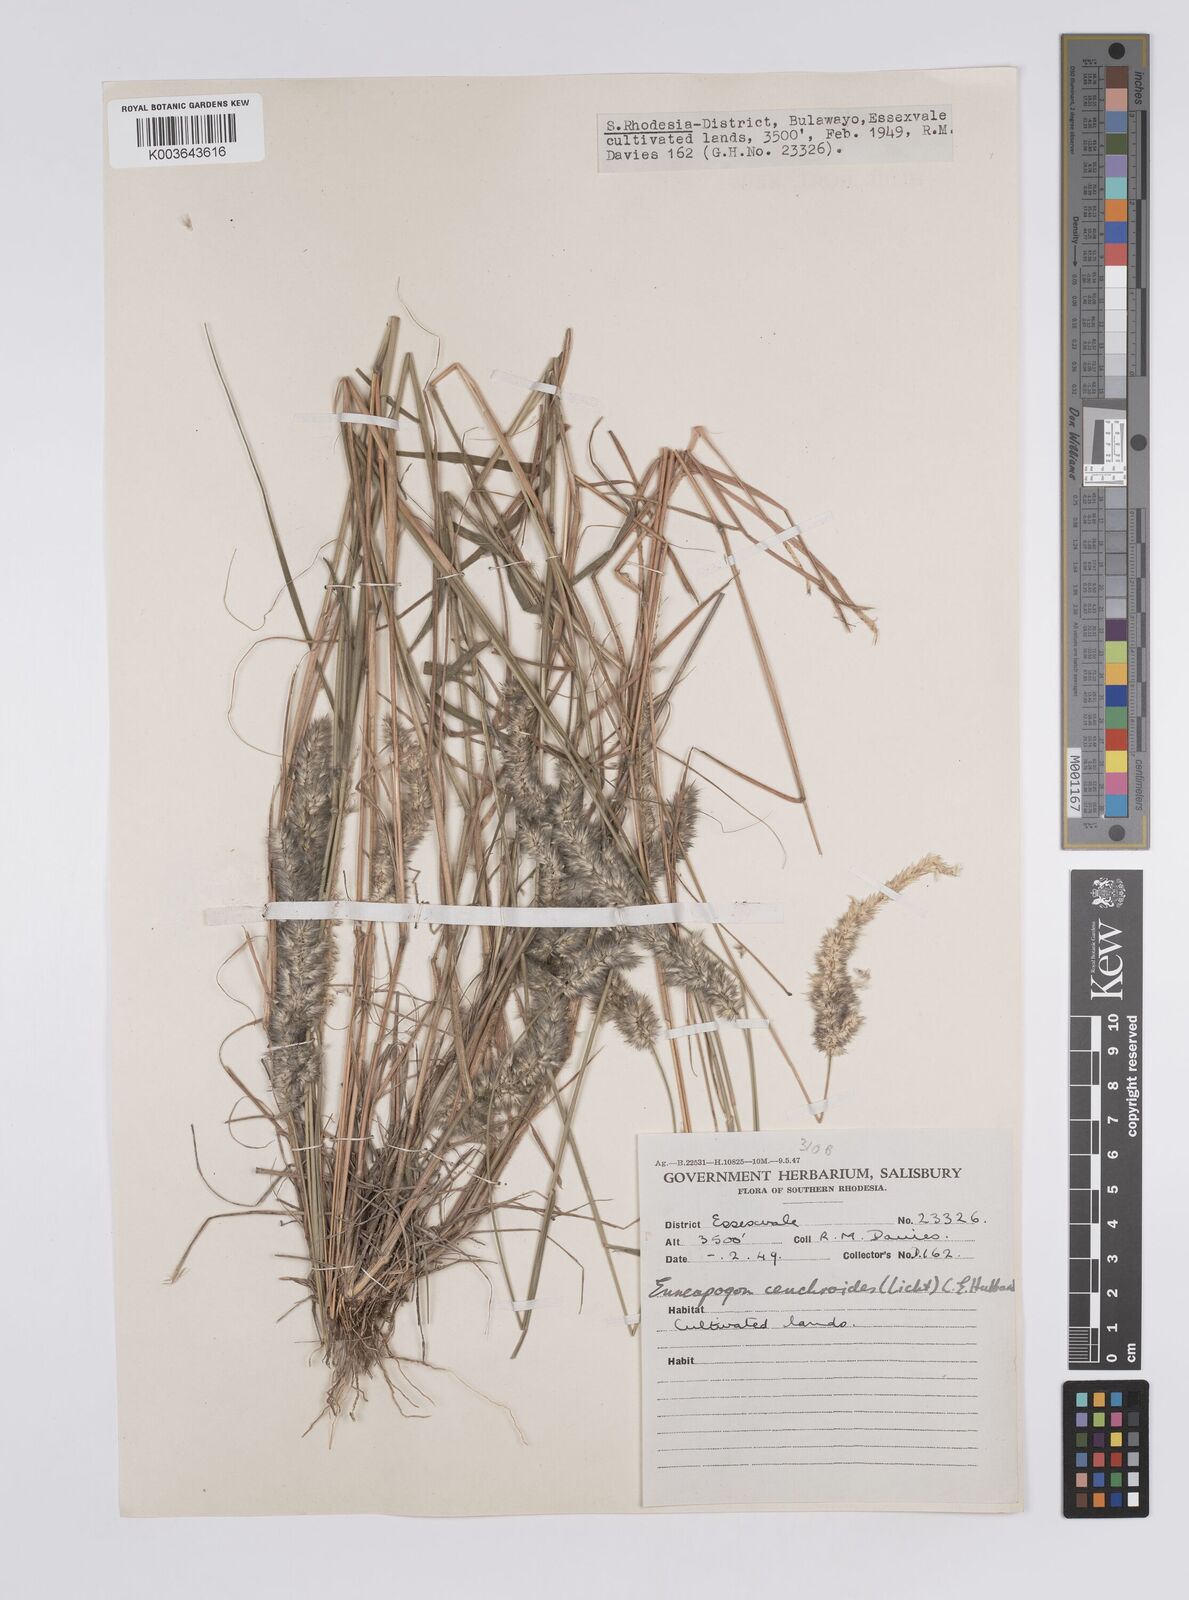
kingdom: Plantae
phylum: Tracheophyta
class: Liliopsida
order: Poales
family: Poaceae
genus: Enneapogon
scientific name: Enneapogon cenchroides
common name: Soft feather pappusgrass
